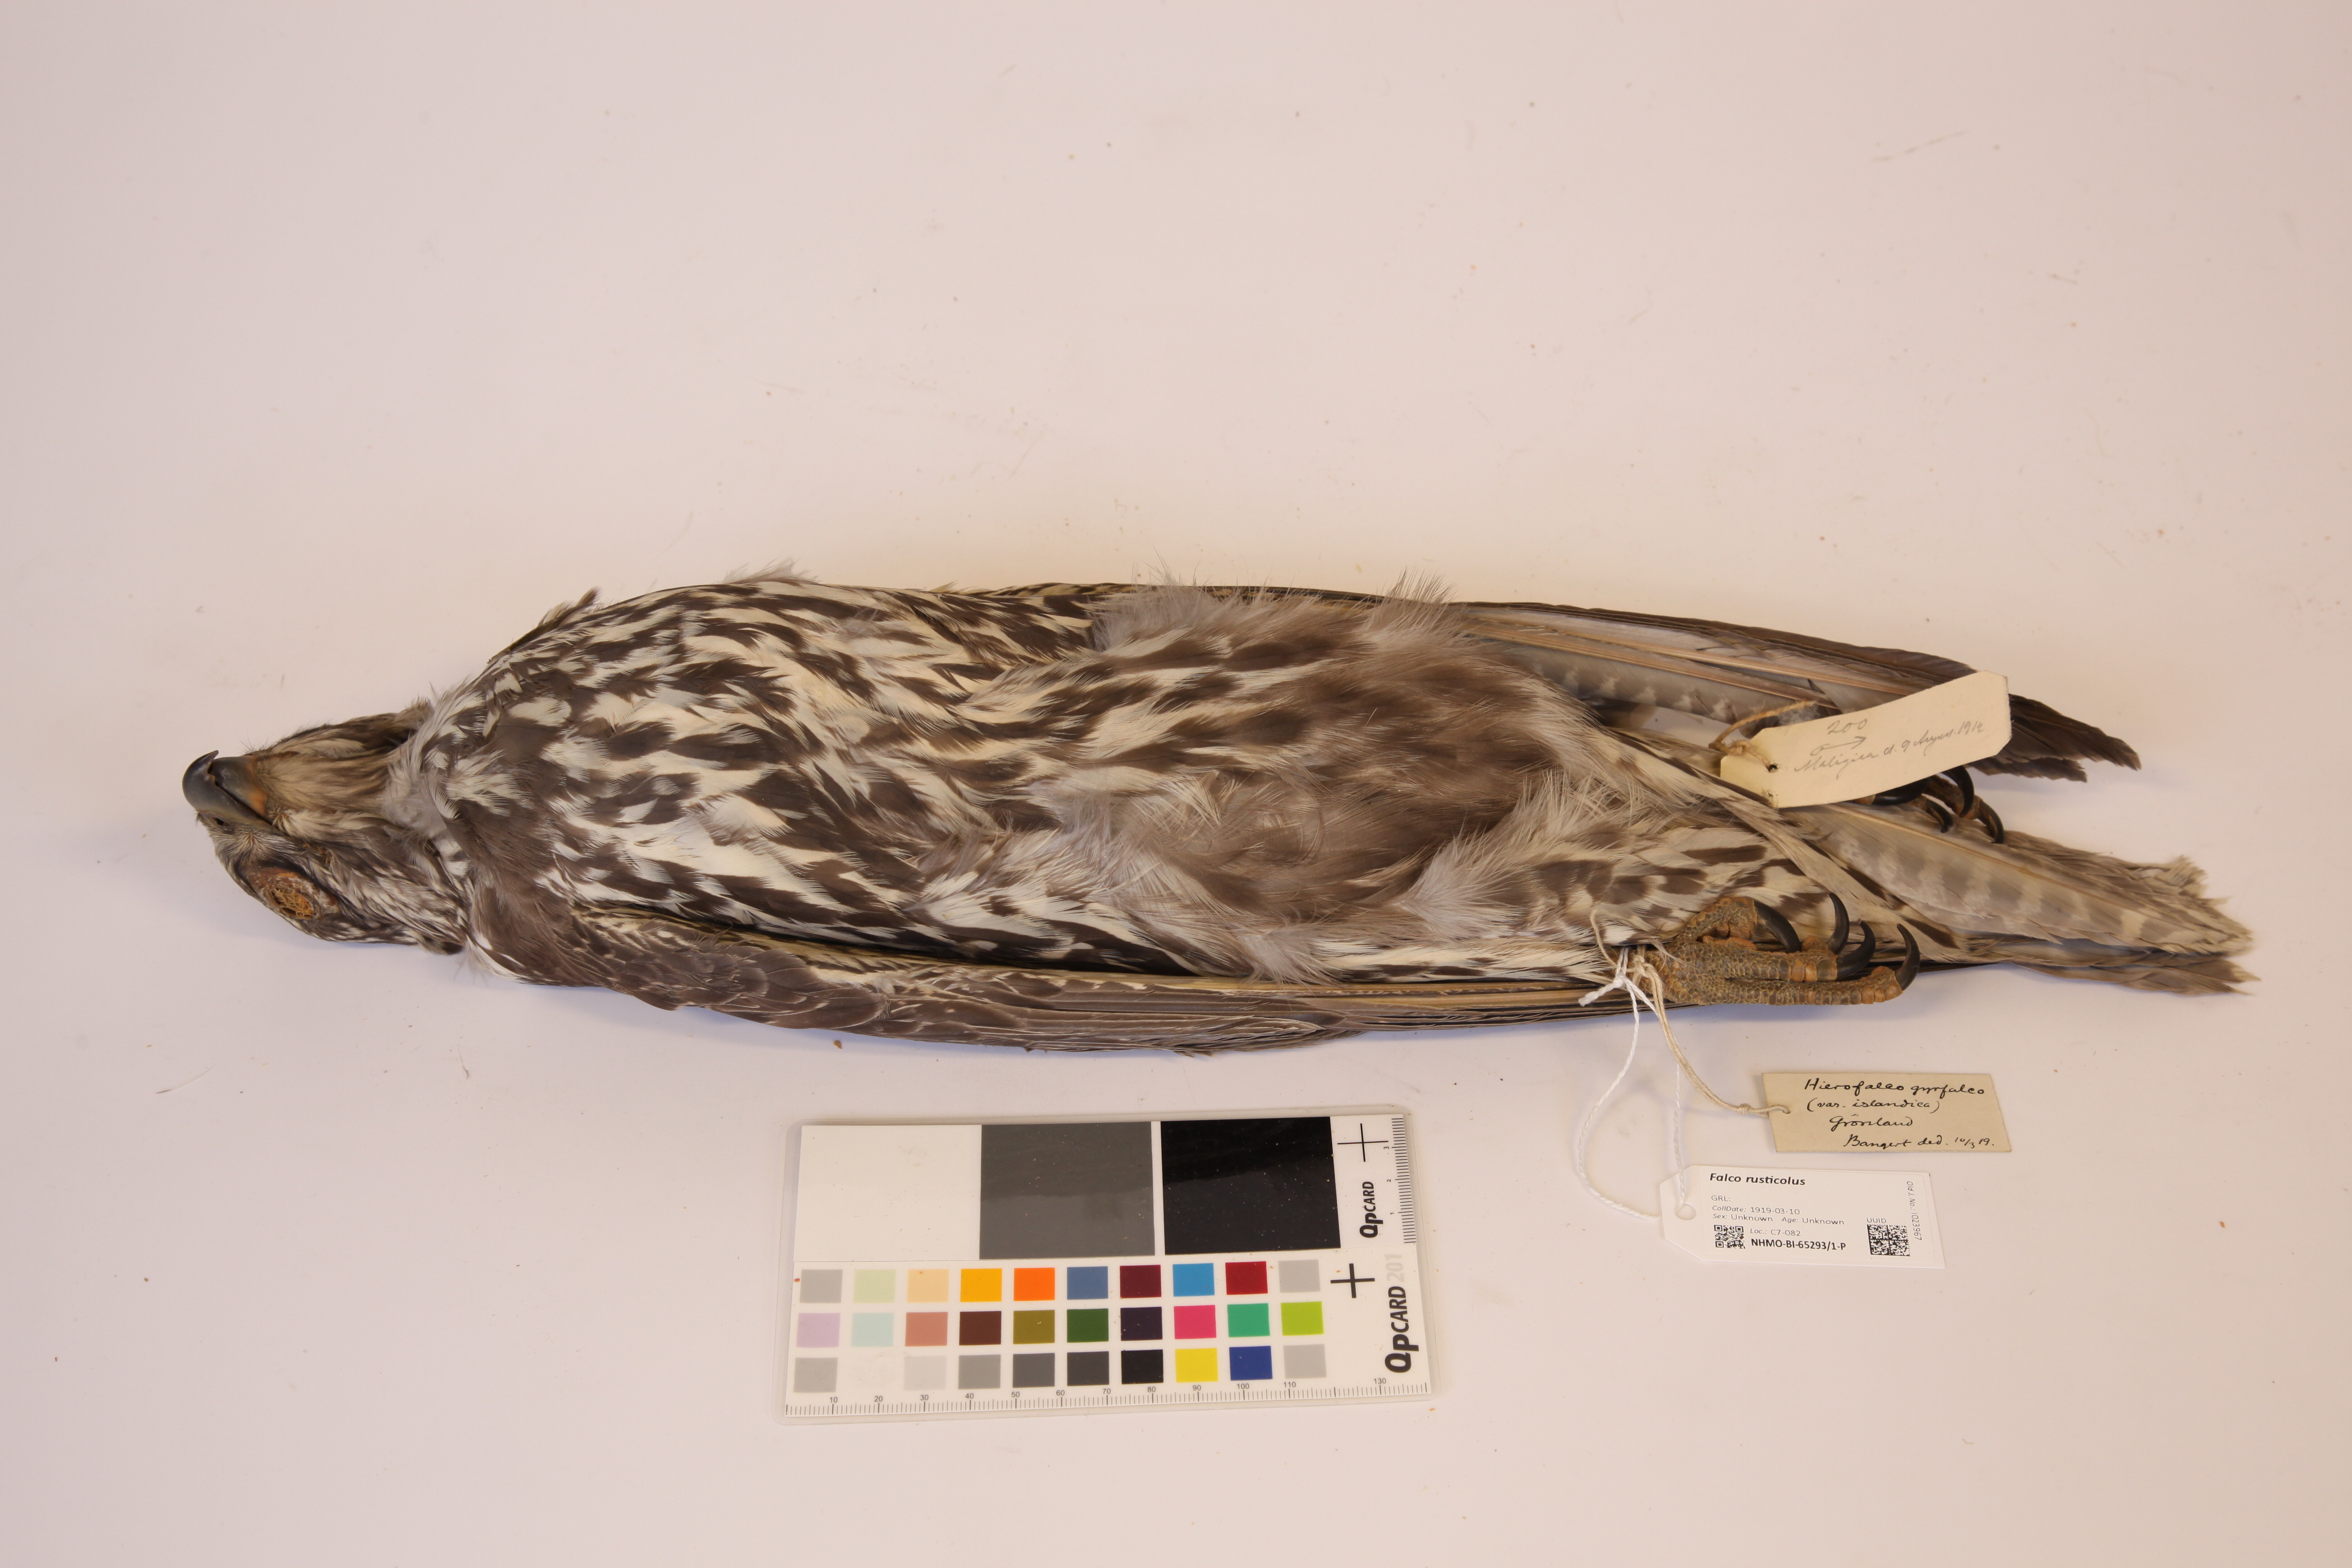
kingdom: Animalia
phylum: Chordata
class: Aves
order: Falconiformes
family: Falconidae
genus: Falco
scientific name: Falco rusticolus
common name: Gyrfalcon
